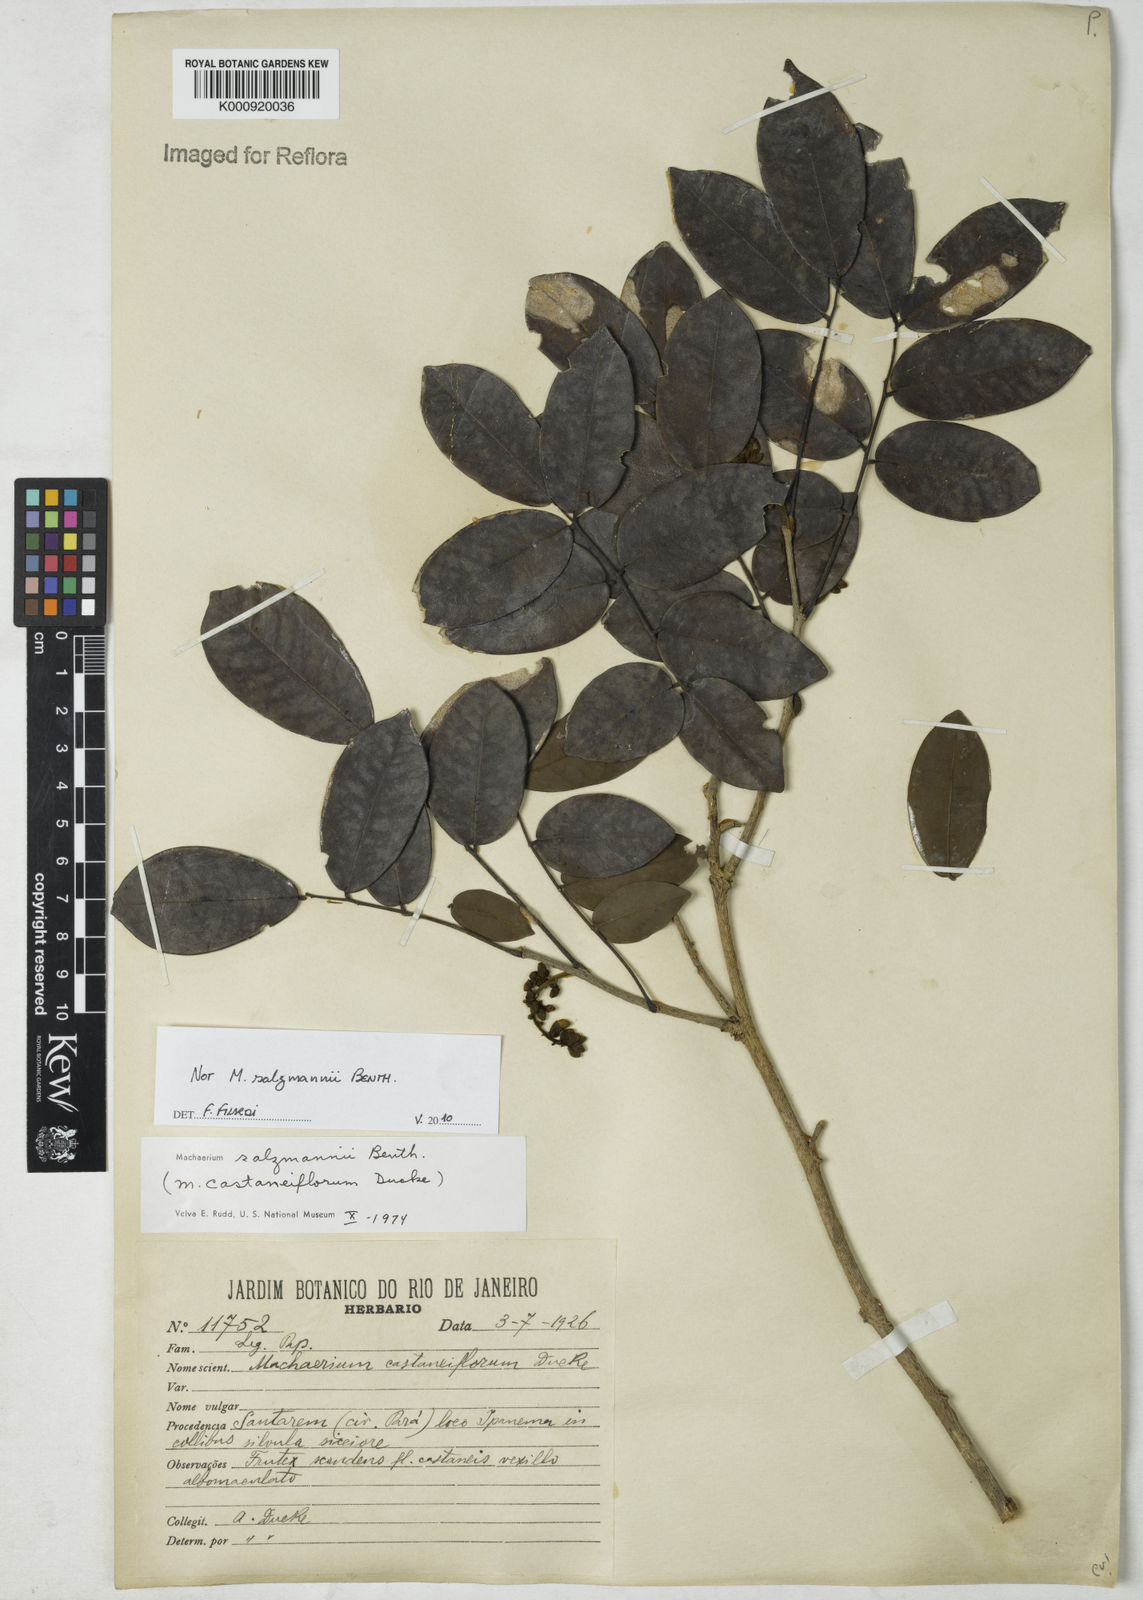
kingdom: Plantae
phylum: Tracheophyta
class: Magnoliopsida
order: Fabales
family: Fabaceae
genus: Machaerium
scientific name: Machaerium
